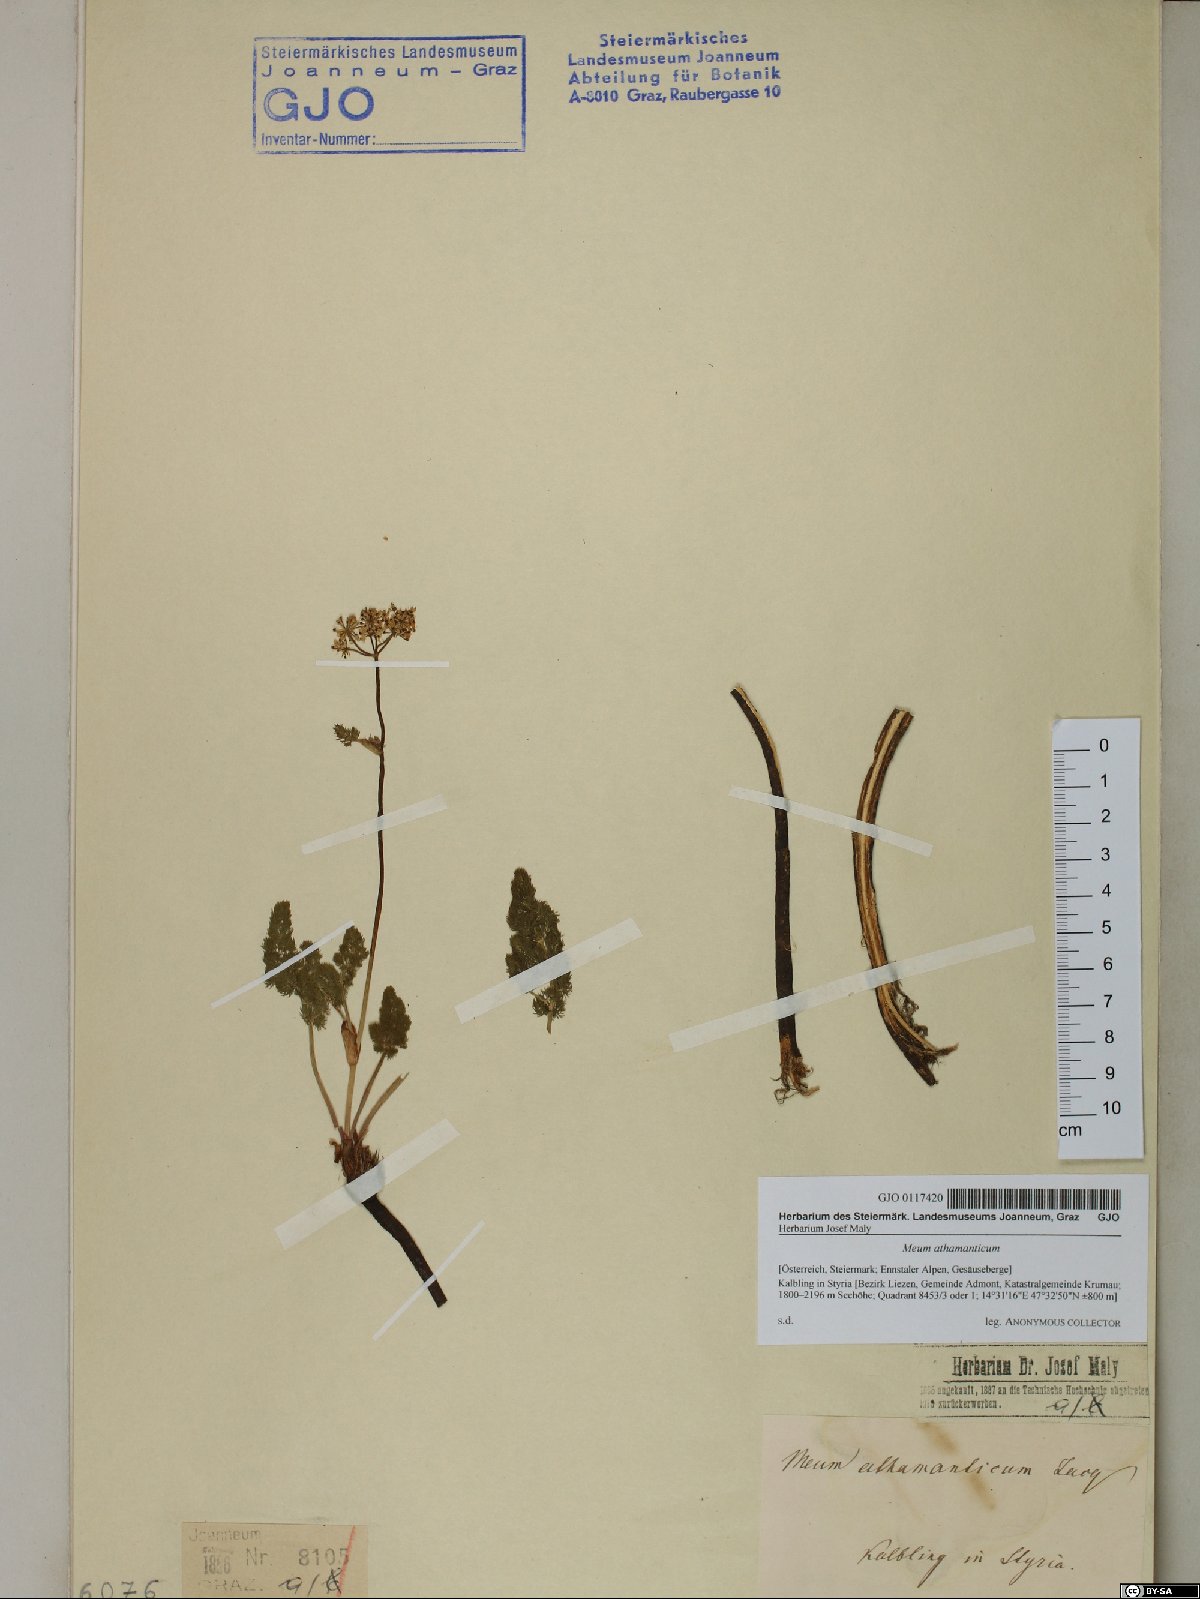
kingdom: Plantae
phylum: Tracheophyta
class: Magnoliopsida
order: Apiales
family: Apiaceae
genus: Meum
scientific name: Meum athamanticum
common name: Spignel
